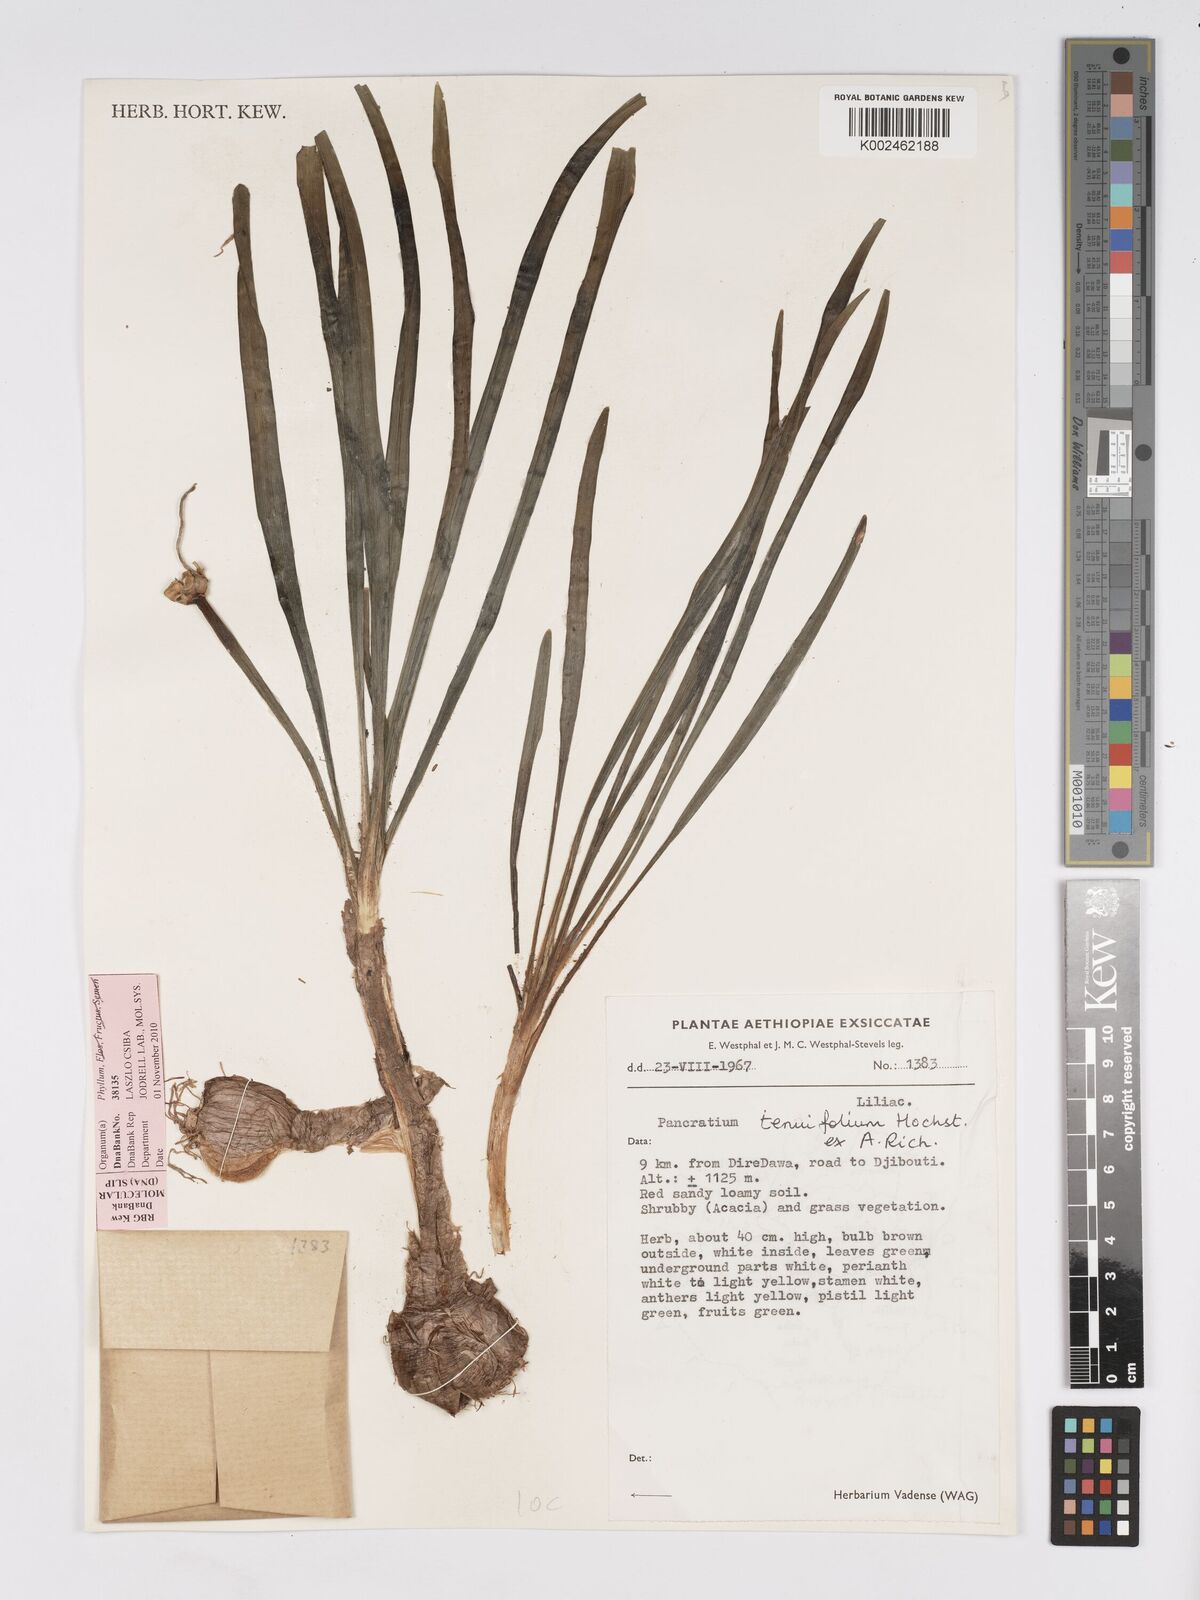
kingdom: Plantae
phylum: Tracheophyta
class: Liliopsida
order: Asparagales
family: Amaryllidaceae
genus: Pancratium
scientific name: Pancratium tenuifolium
